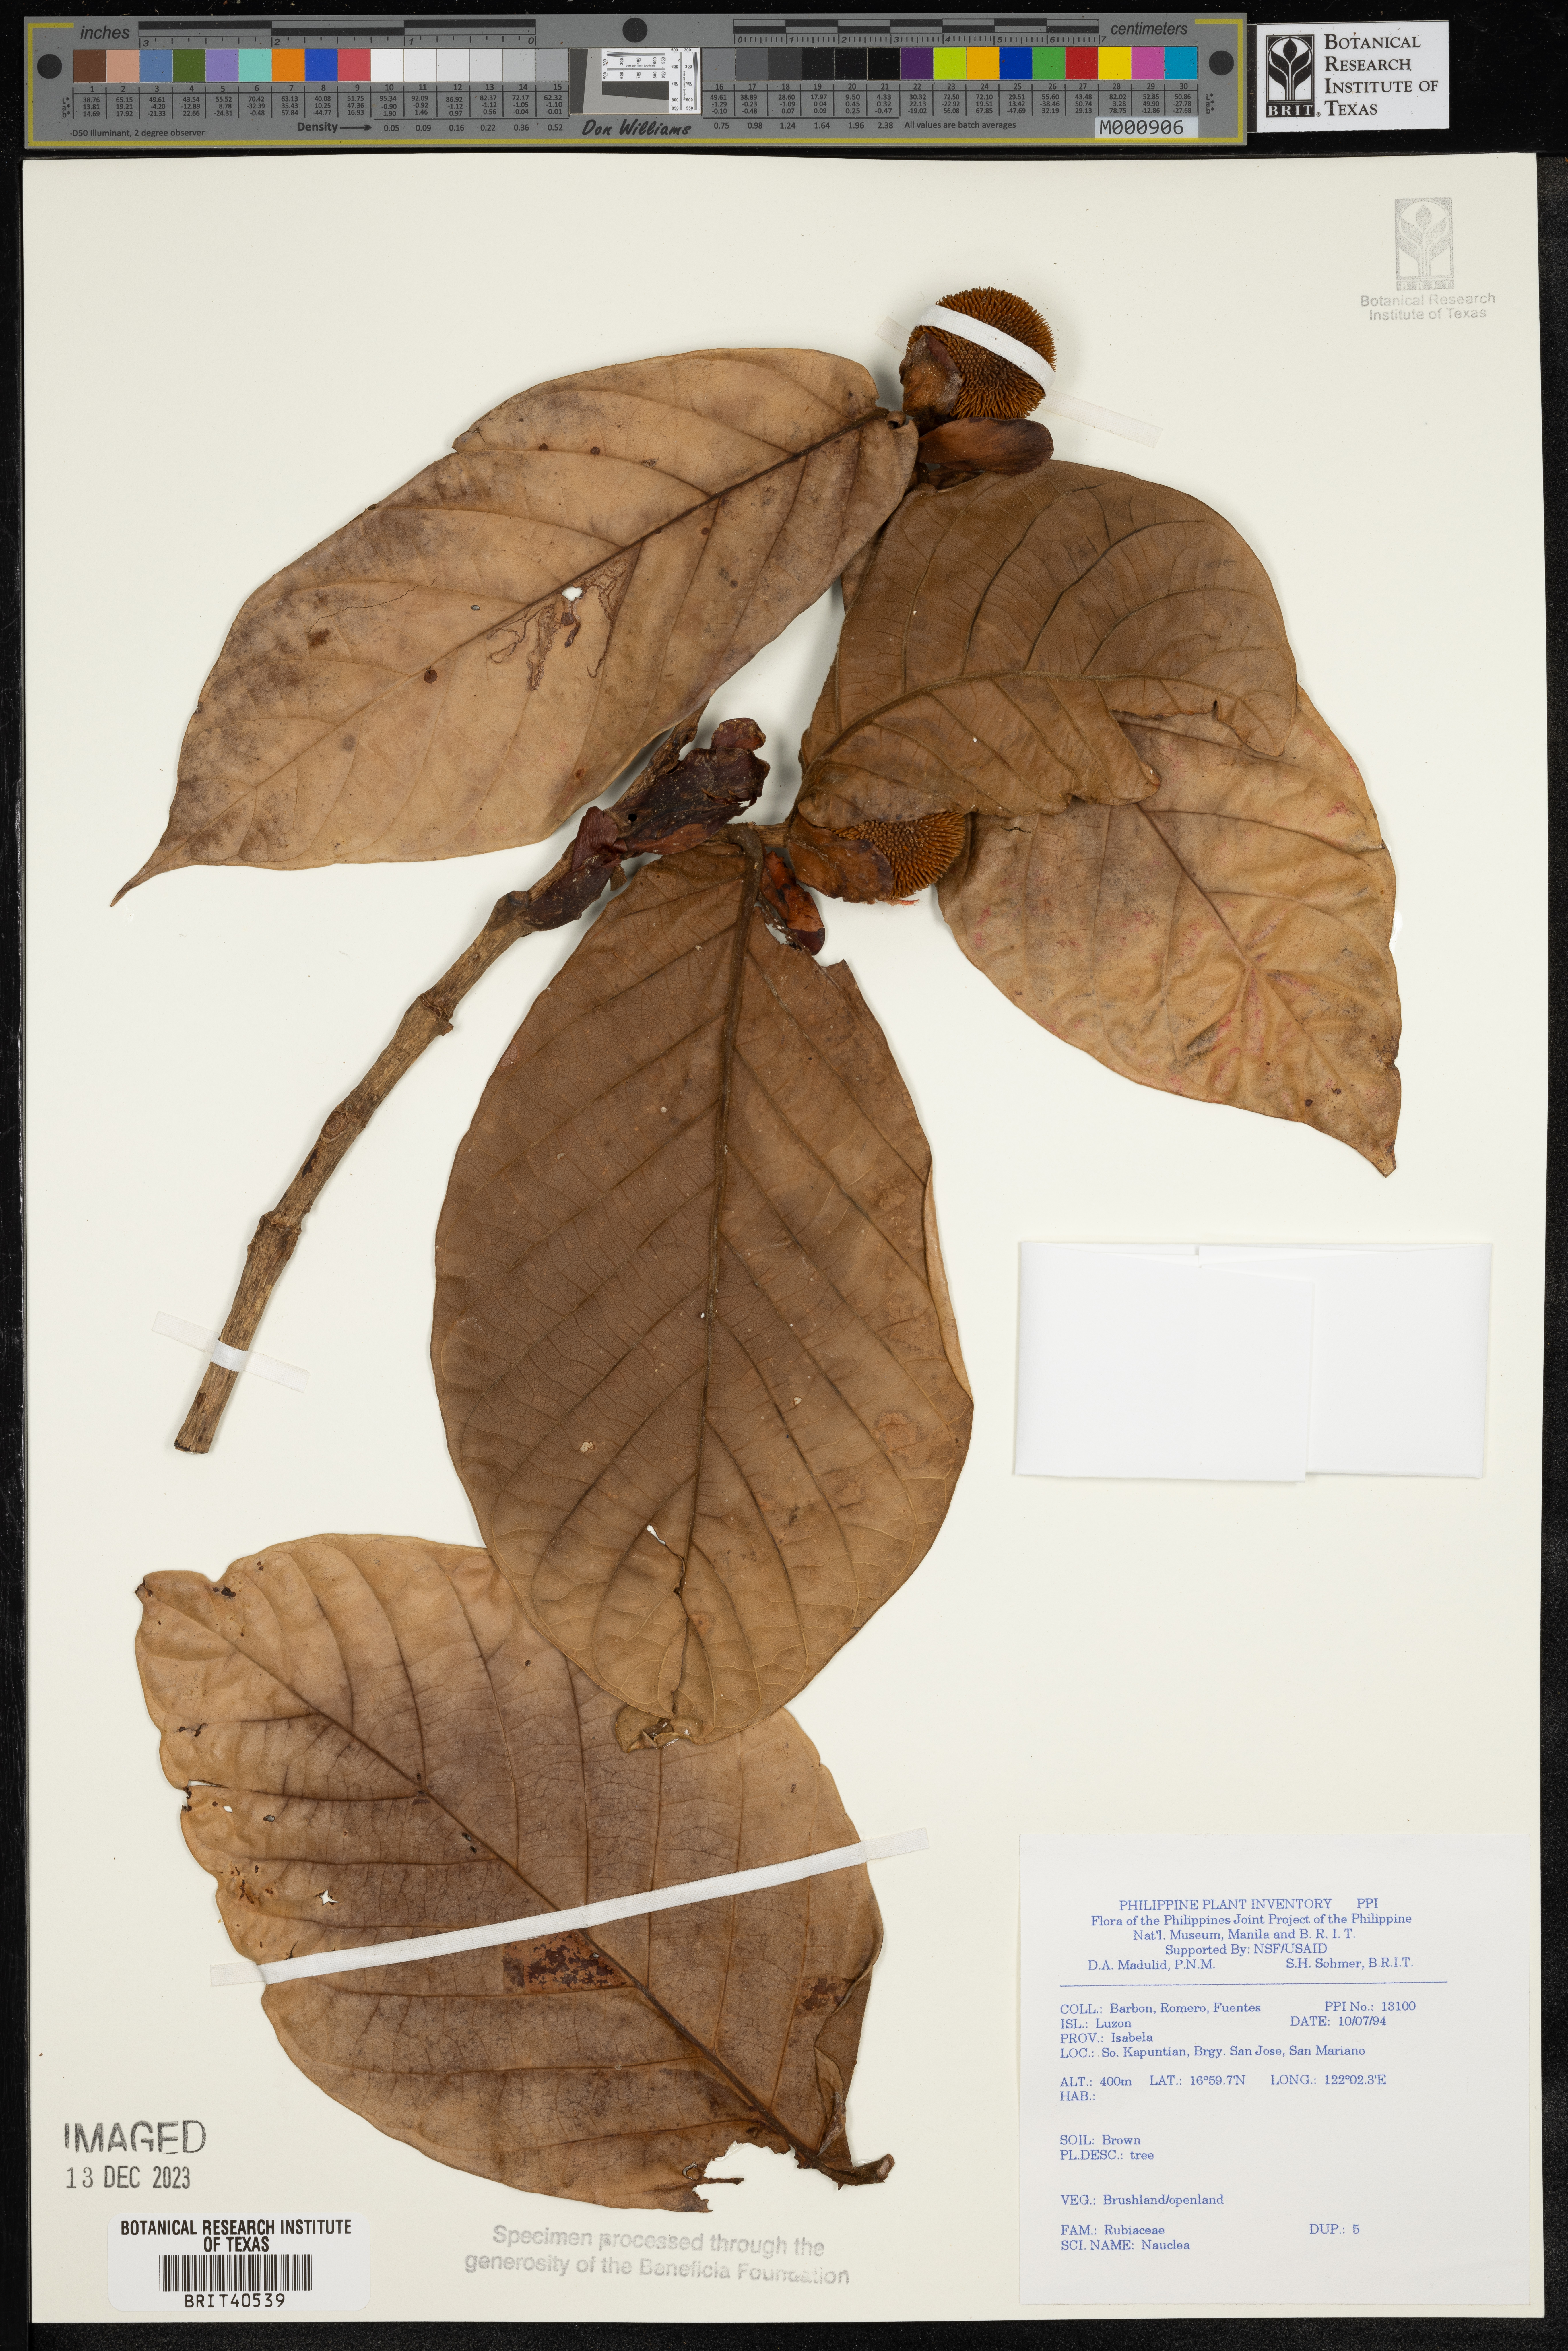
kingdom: Plantae
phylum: Tracheophyta
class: Magnoliopsida
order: Gentianales
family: Rubiaceae
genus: Nauclea
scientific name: Nauclea
